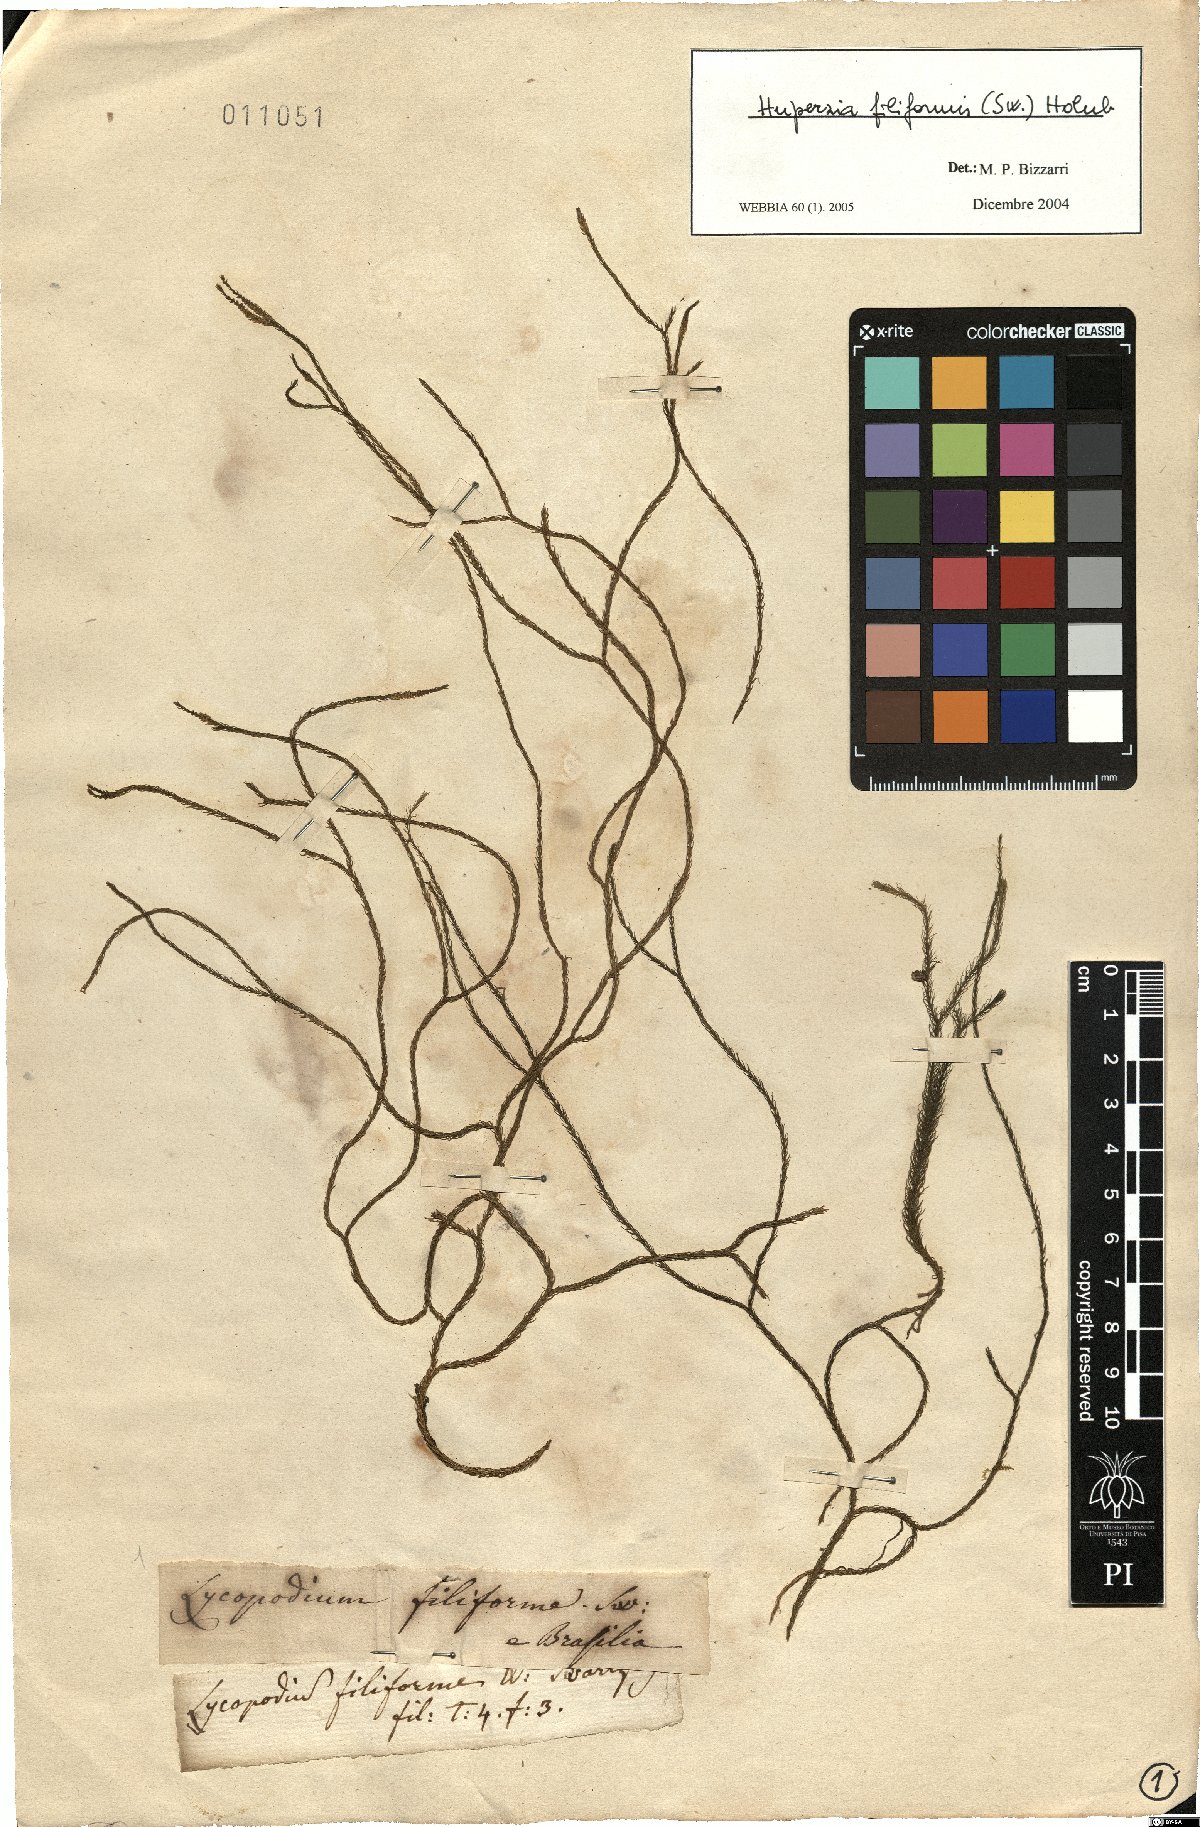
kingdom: Plantae
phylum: Tracheophyta
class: Lycopodiopsida
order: Lycopodiales
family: Lycopodiaceae
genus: Phlegmariurus
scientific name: Phlegmariurus filiformis
